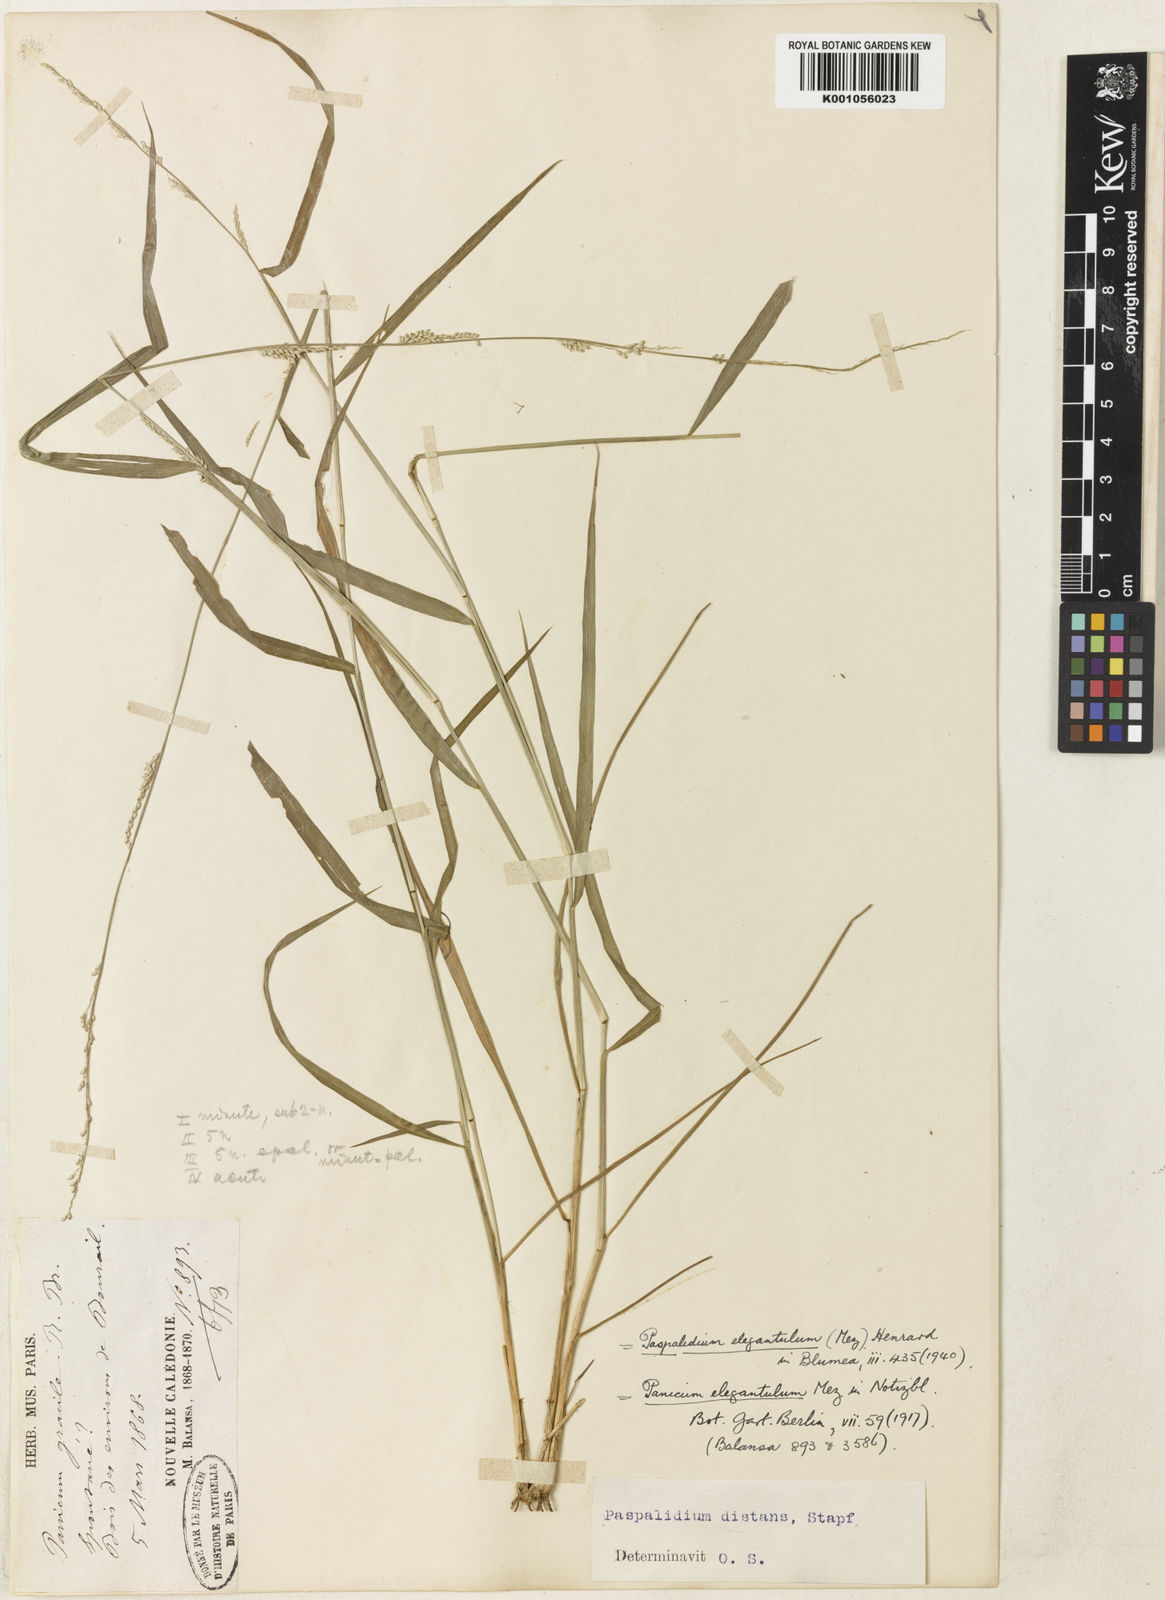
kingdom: Plantae
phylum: Tracheophyta
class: Liliopsida
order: Poales
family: Poaceae
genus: Setaria
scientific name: Setaria elegantula
